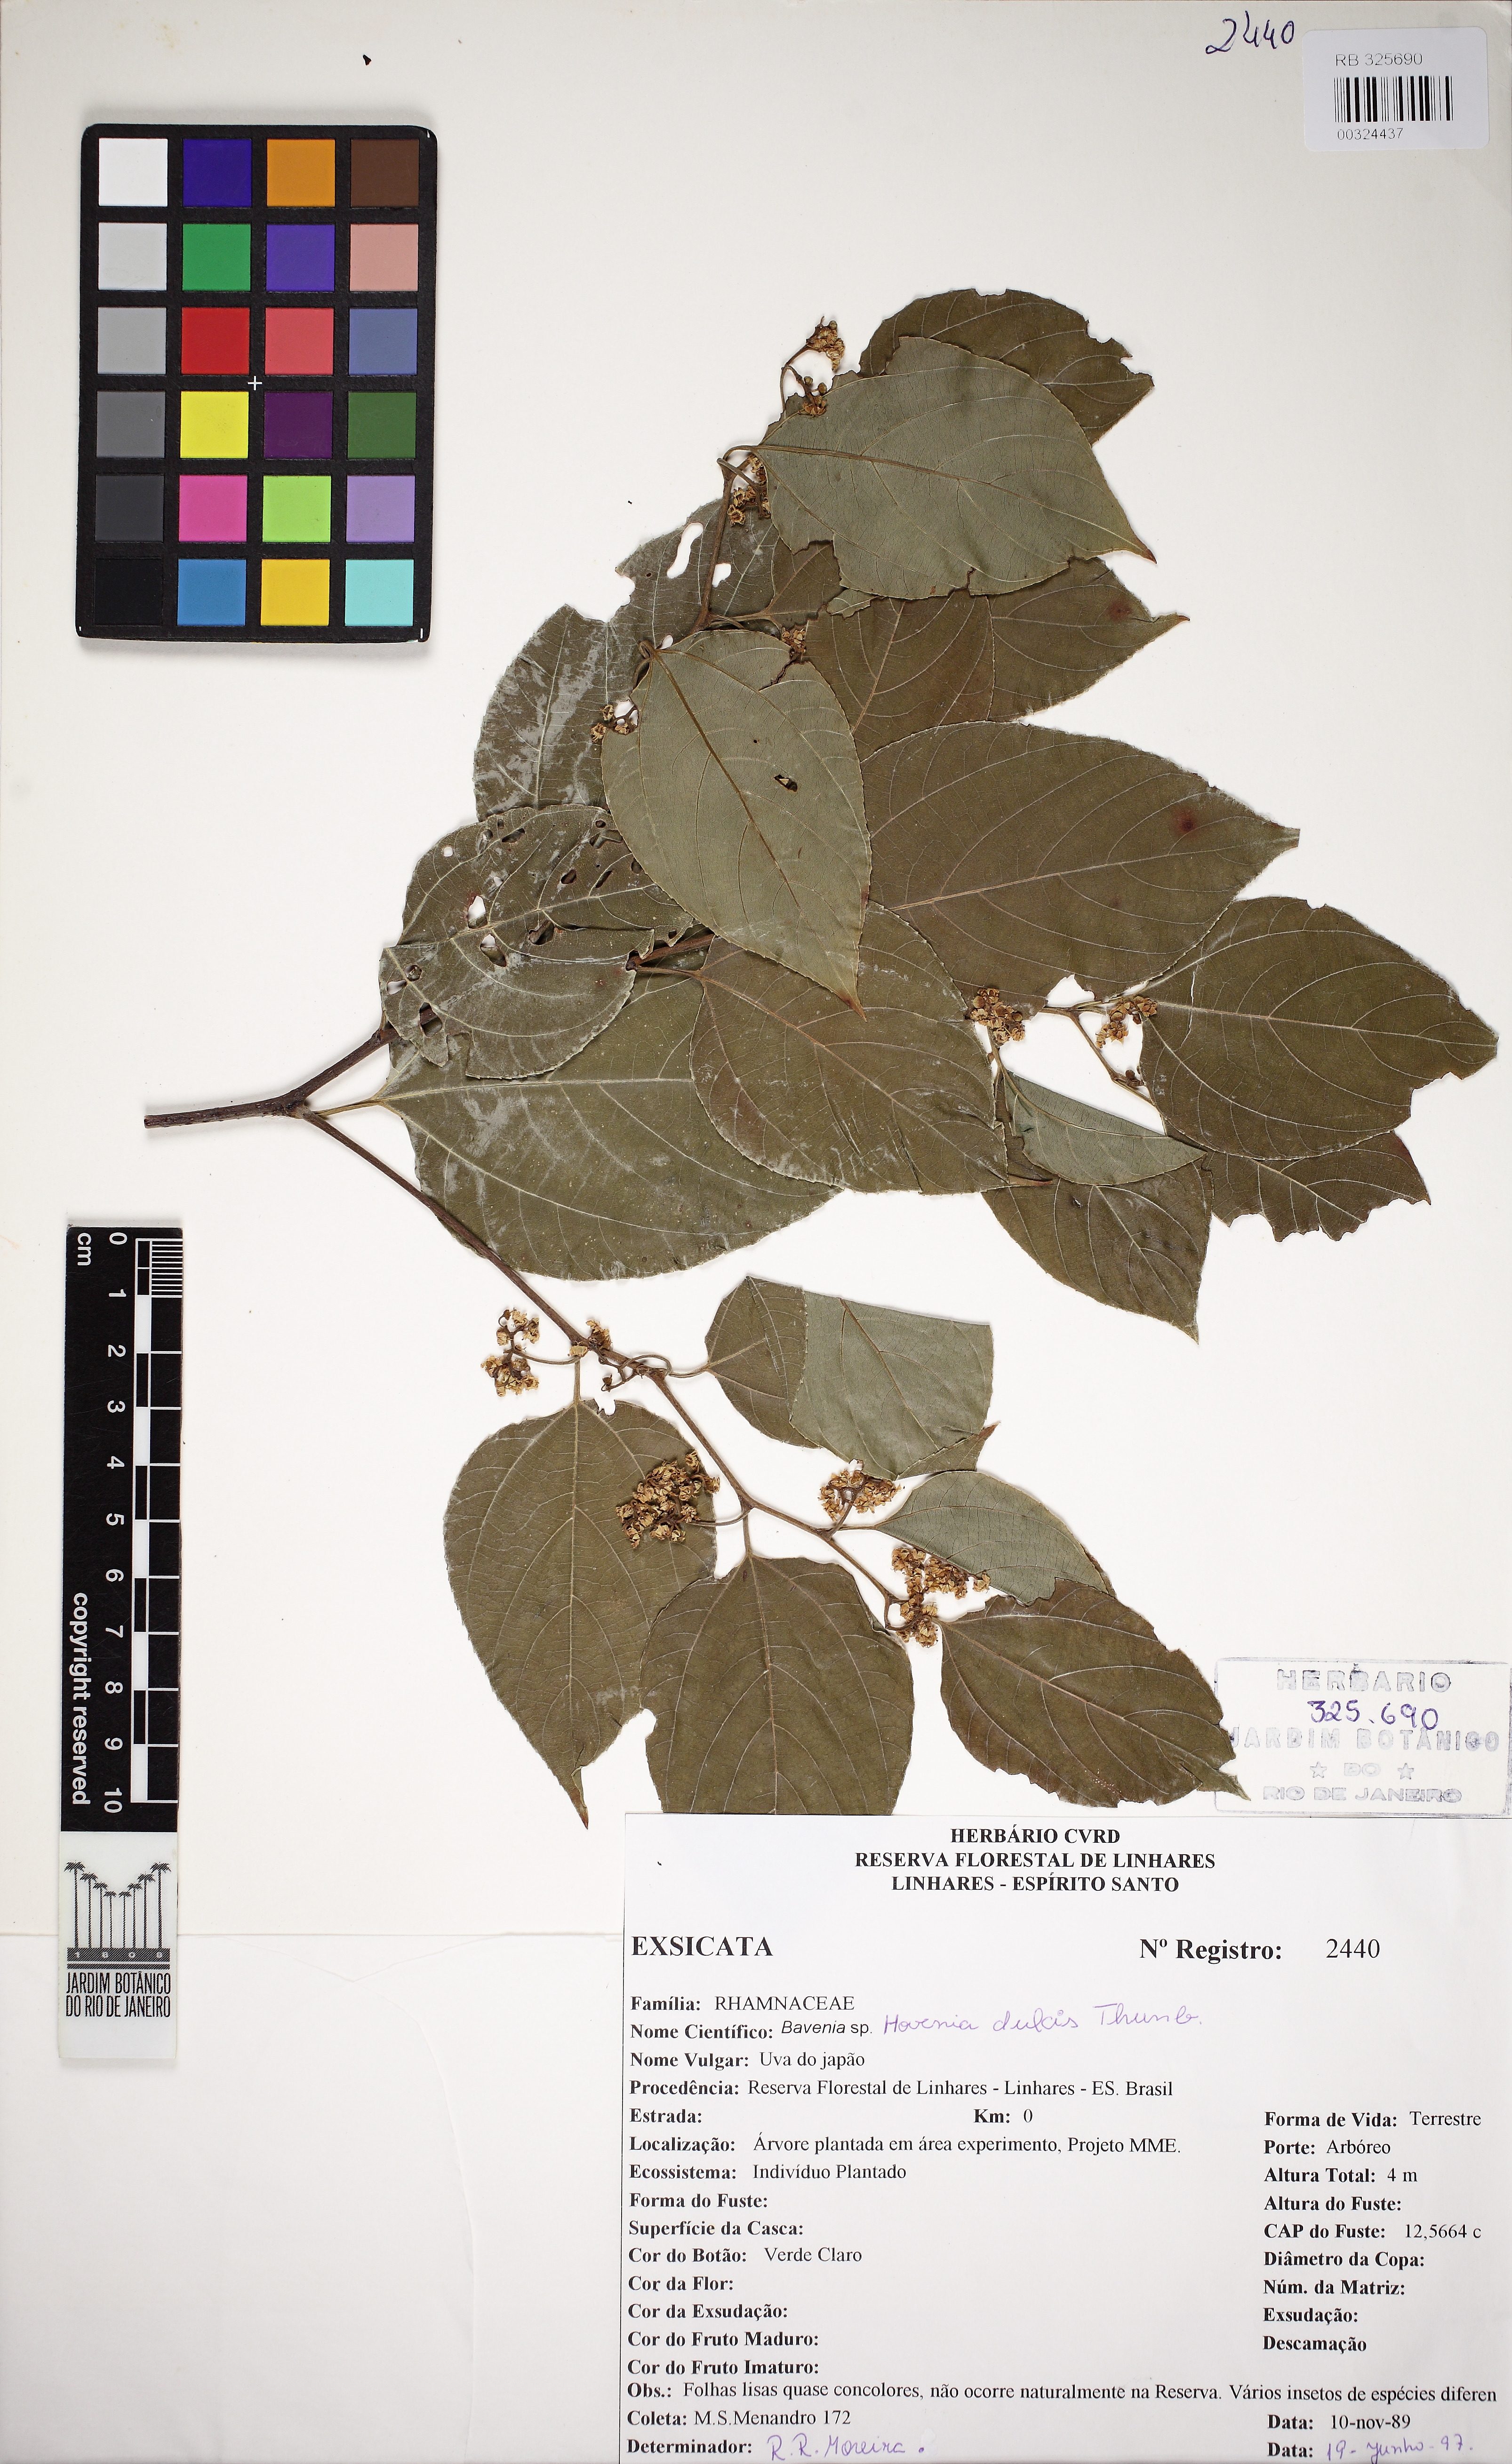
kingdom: Plantae
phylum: Tracheophyta
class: Magnoliopsida
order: Rosales
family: Rhamnaceae
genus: Hovenia
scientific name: Hovenia dulcis
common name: Japanese raisintree
